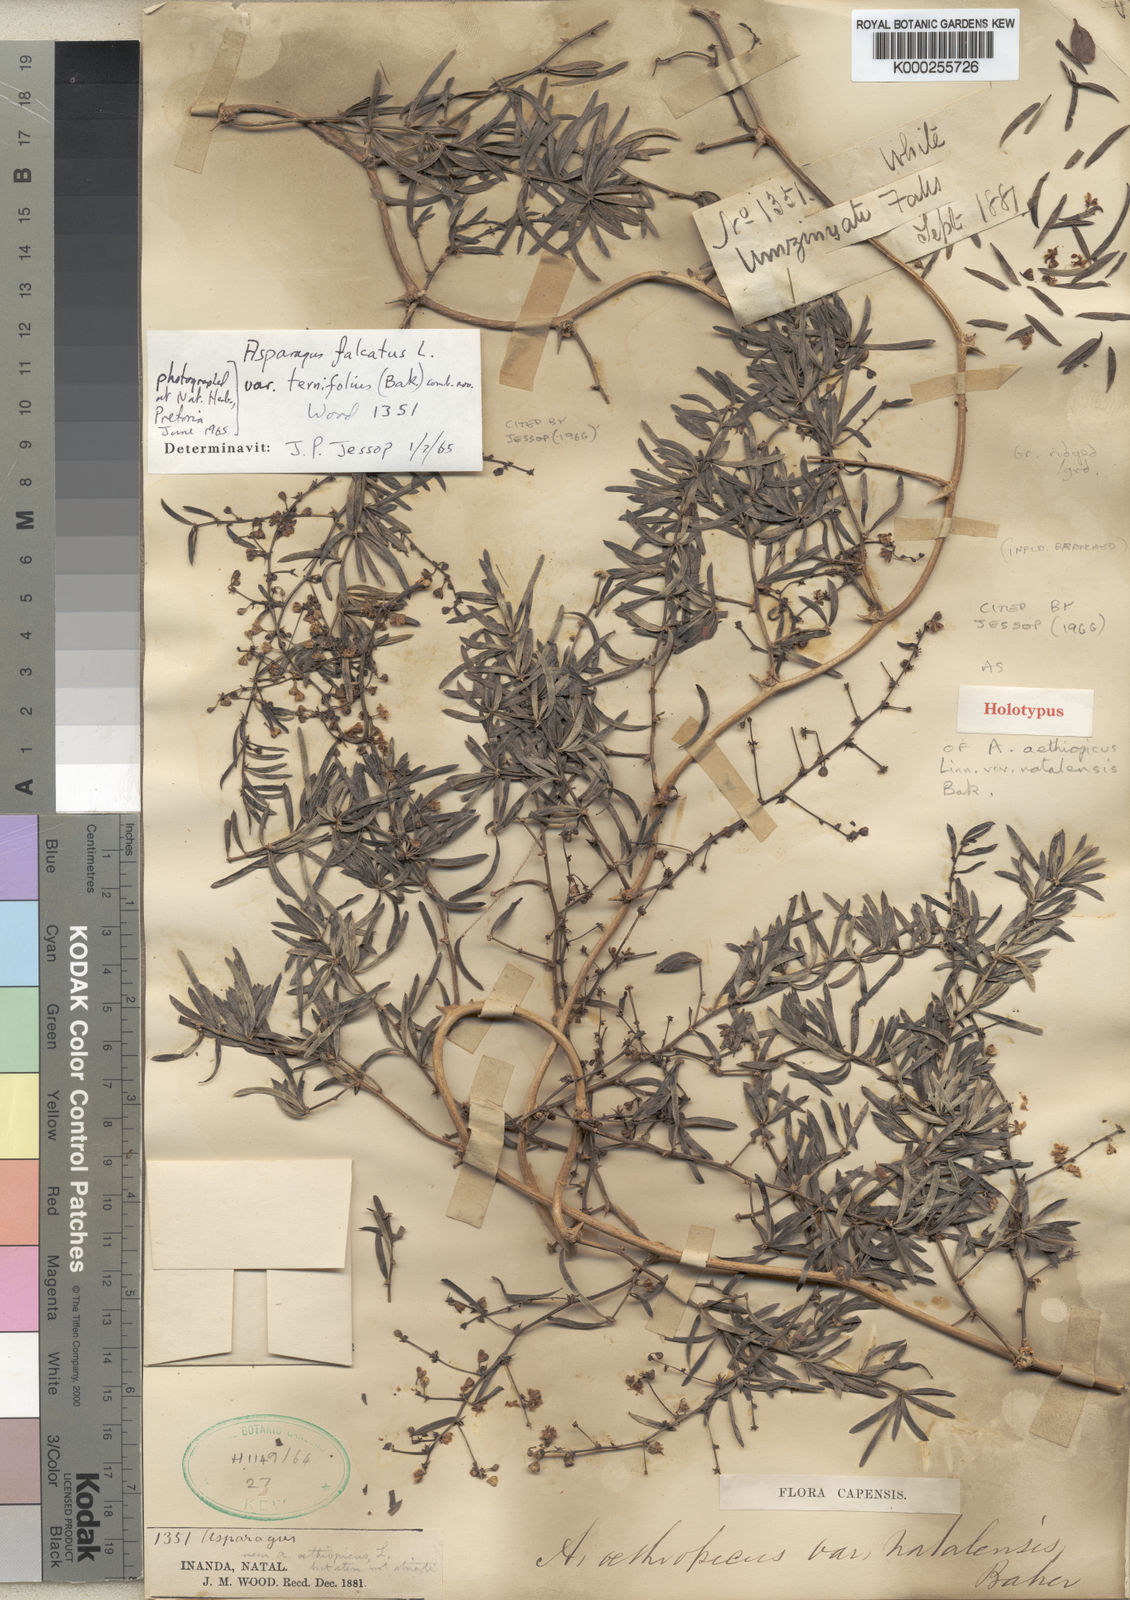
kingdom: Plantae
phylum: Tracheophyta
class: Liliopsida
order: Asparagales
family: Asparagaceae
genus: Asparagus
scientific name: Asparagus falcatus
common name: Asparagus
